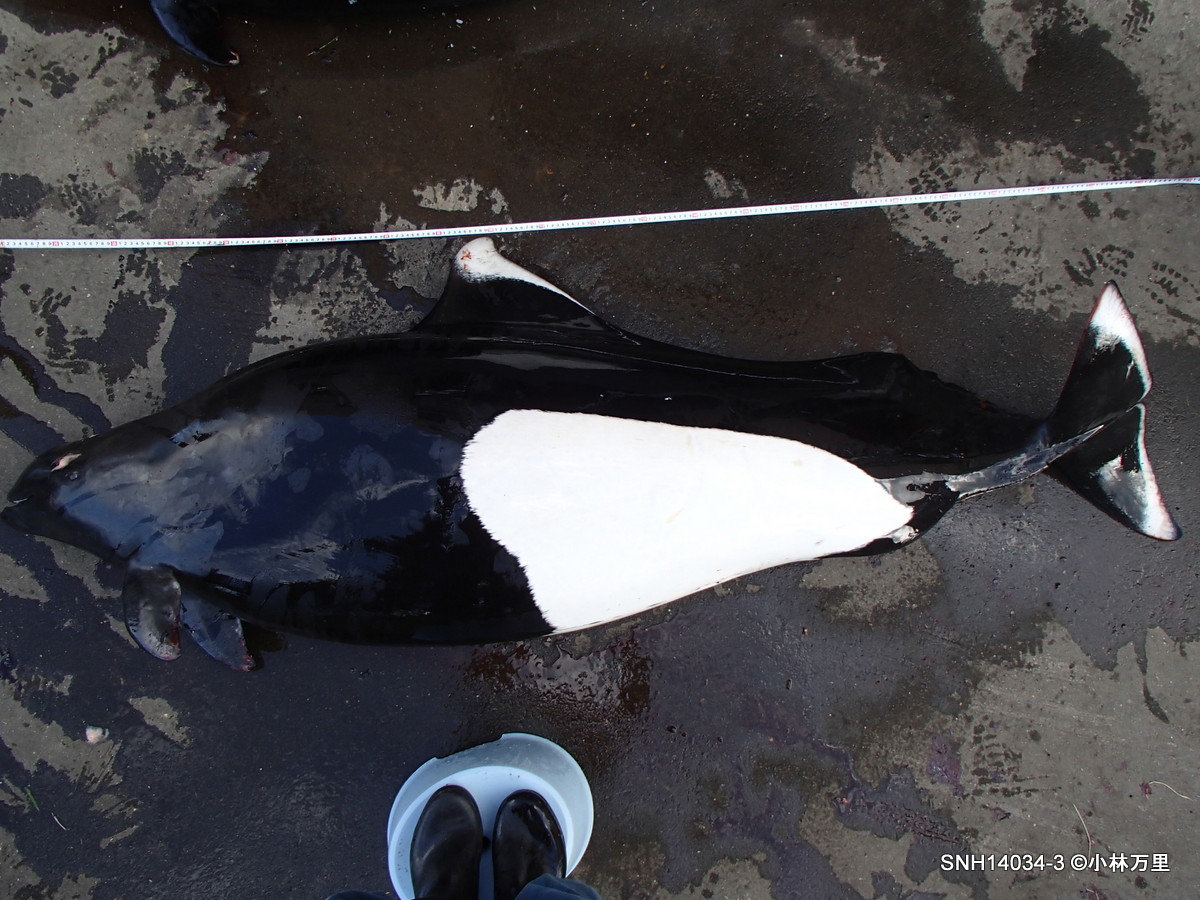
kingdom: Animalia
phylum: Chordata
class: Mammalia
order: Cetacea
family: Phocoenidae
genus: Phocoenoides
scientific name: Phocoenoides dalli
